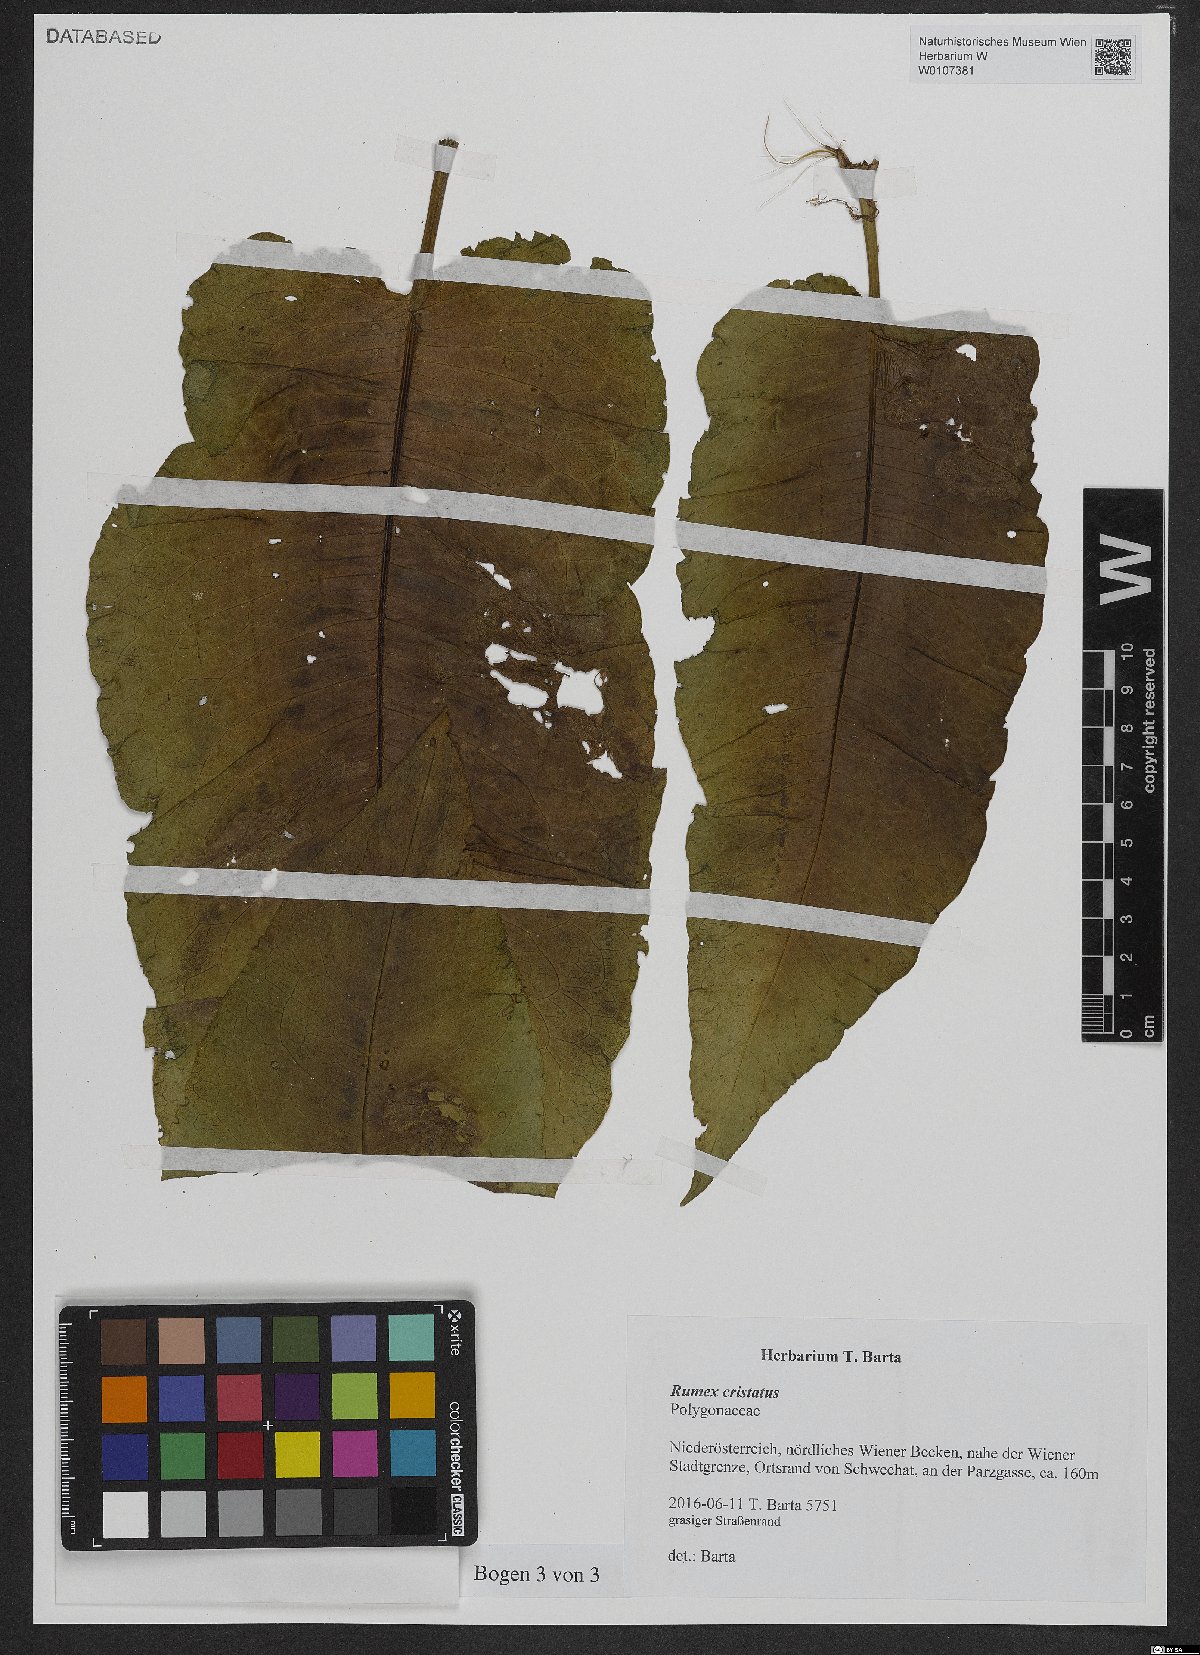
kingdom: Plantae
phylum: Tracheophyta
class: Magnoliopsida
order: Caryophyllales
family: Polygonaceae
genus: Rumex
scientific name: Rumex cristatus
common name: Greek dock
